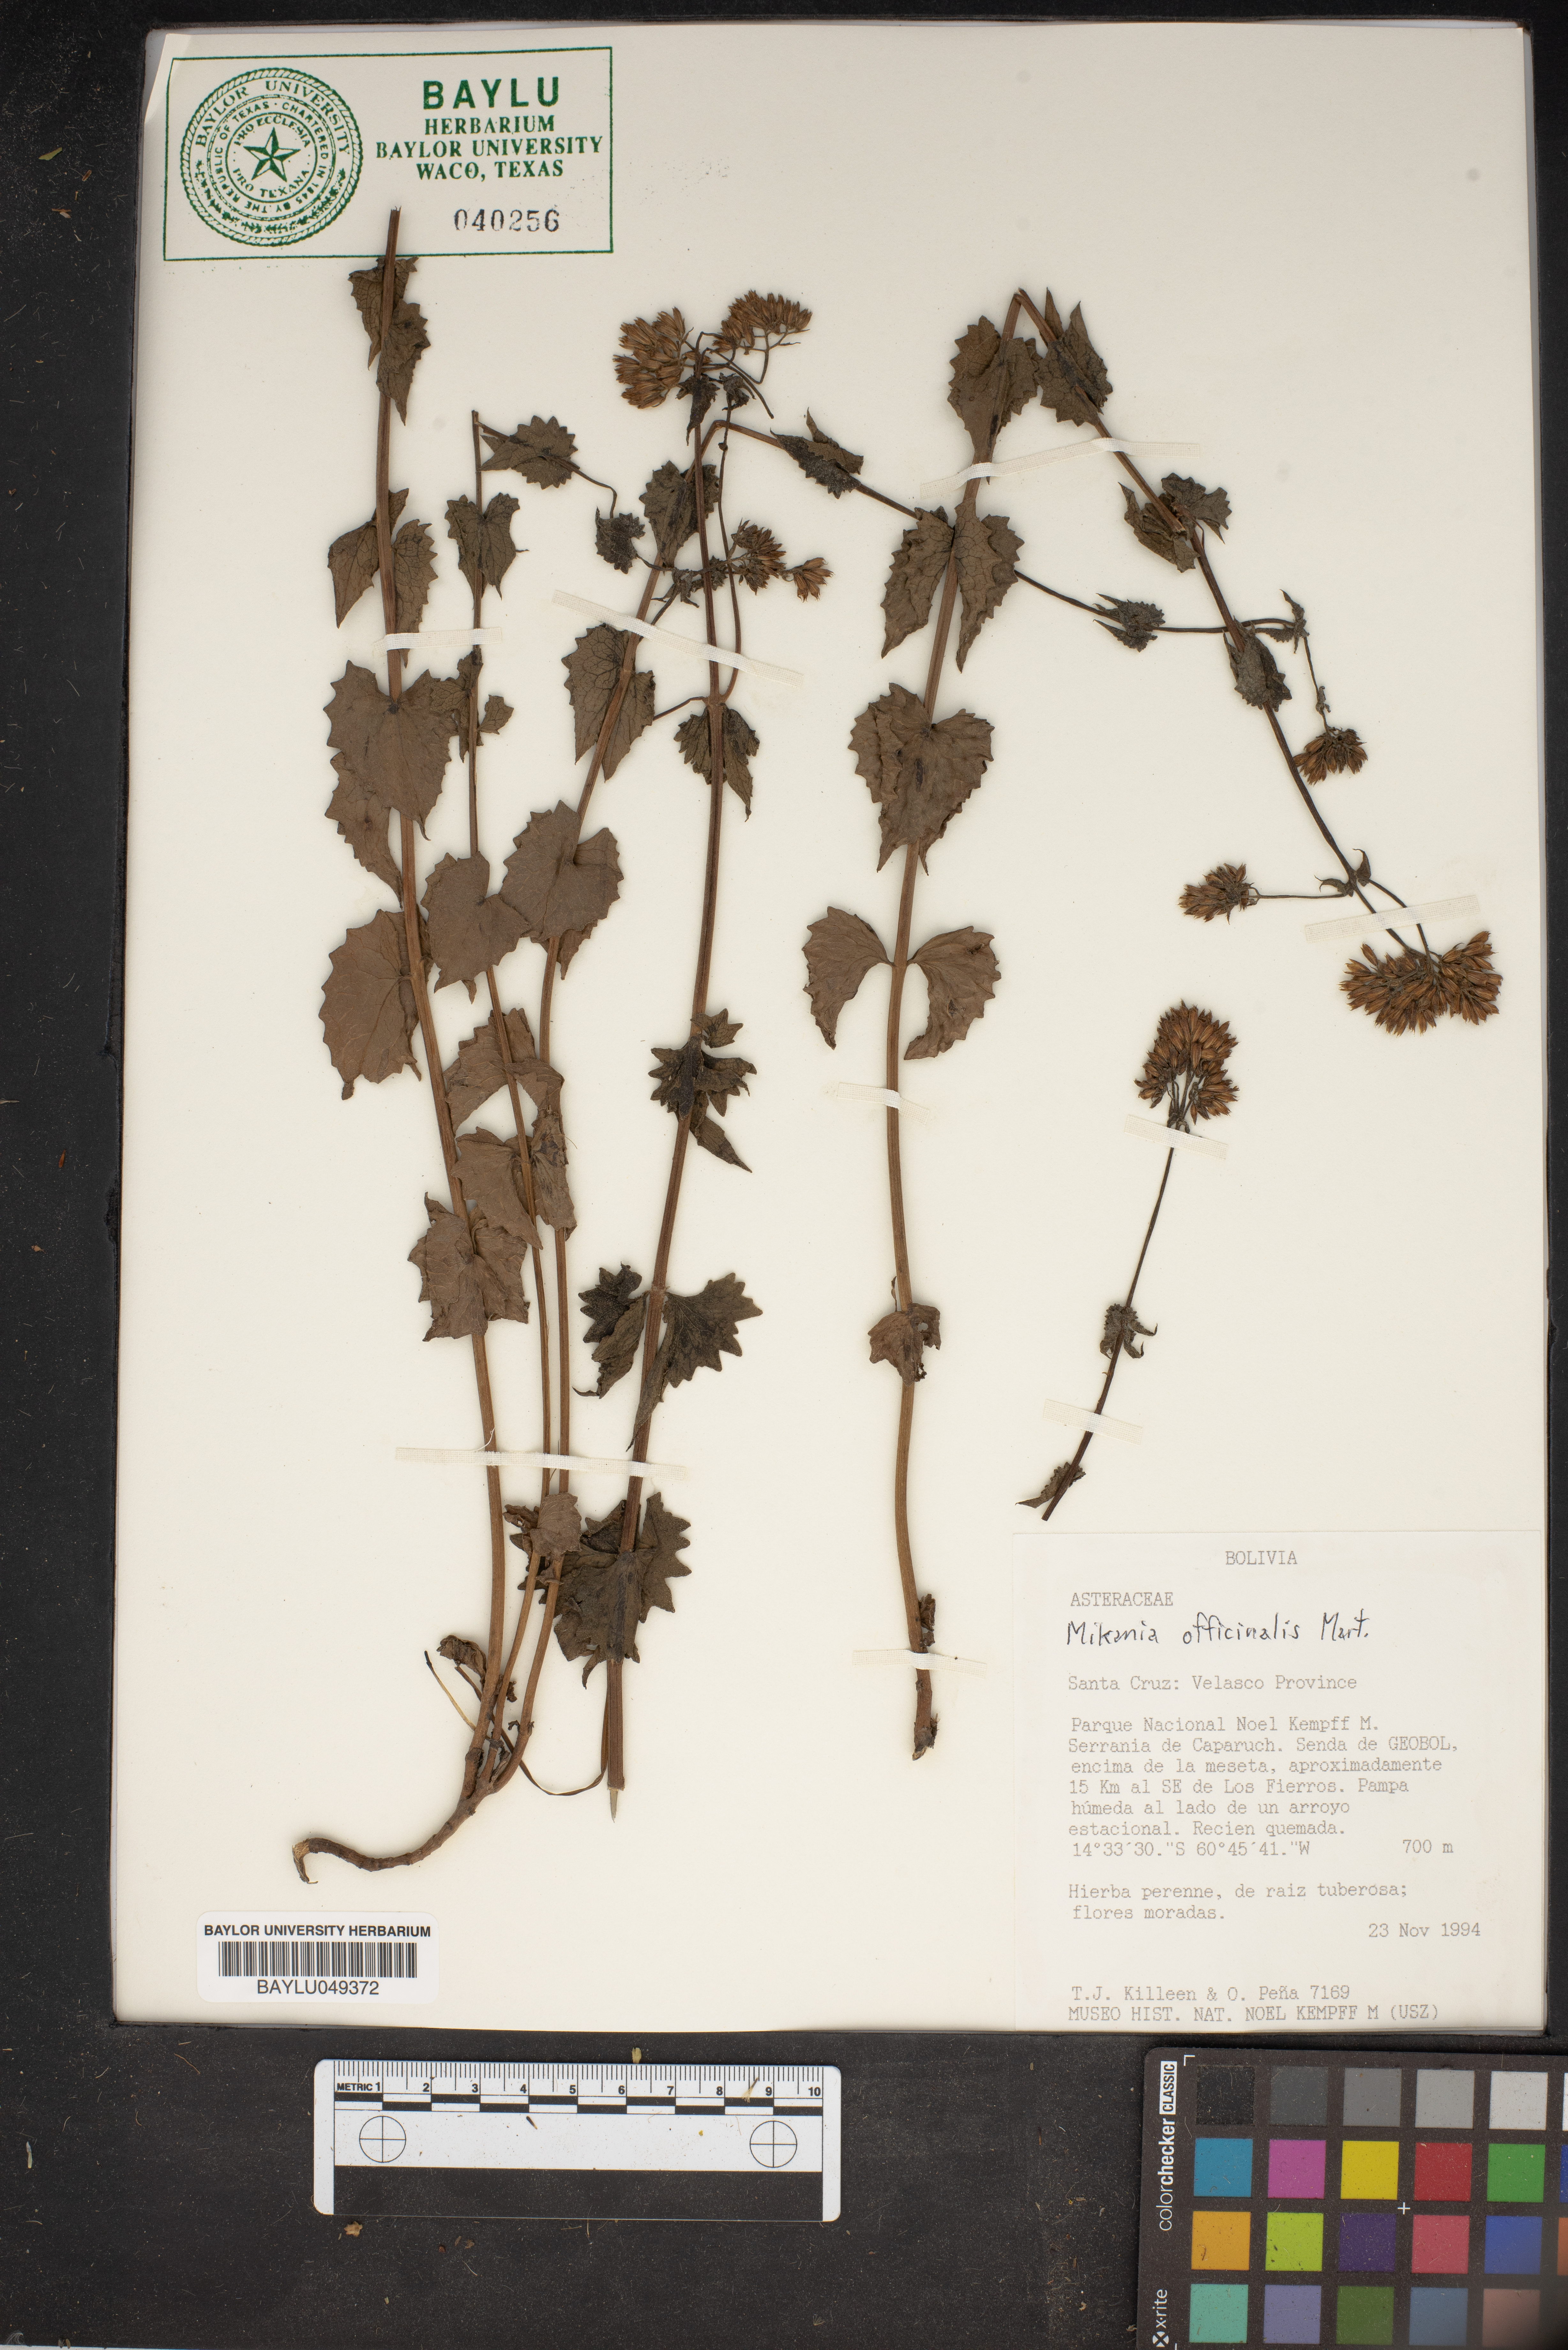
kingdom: Plantae
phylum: Tracheophyta
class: Magnoliopsida
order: Asterales
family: Asteraceae
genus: Mikania
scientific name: Mikania officinalis
